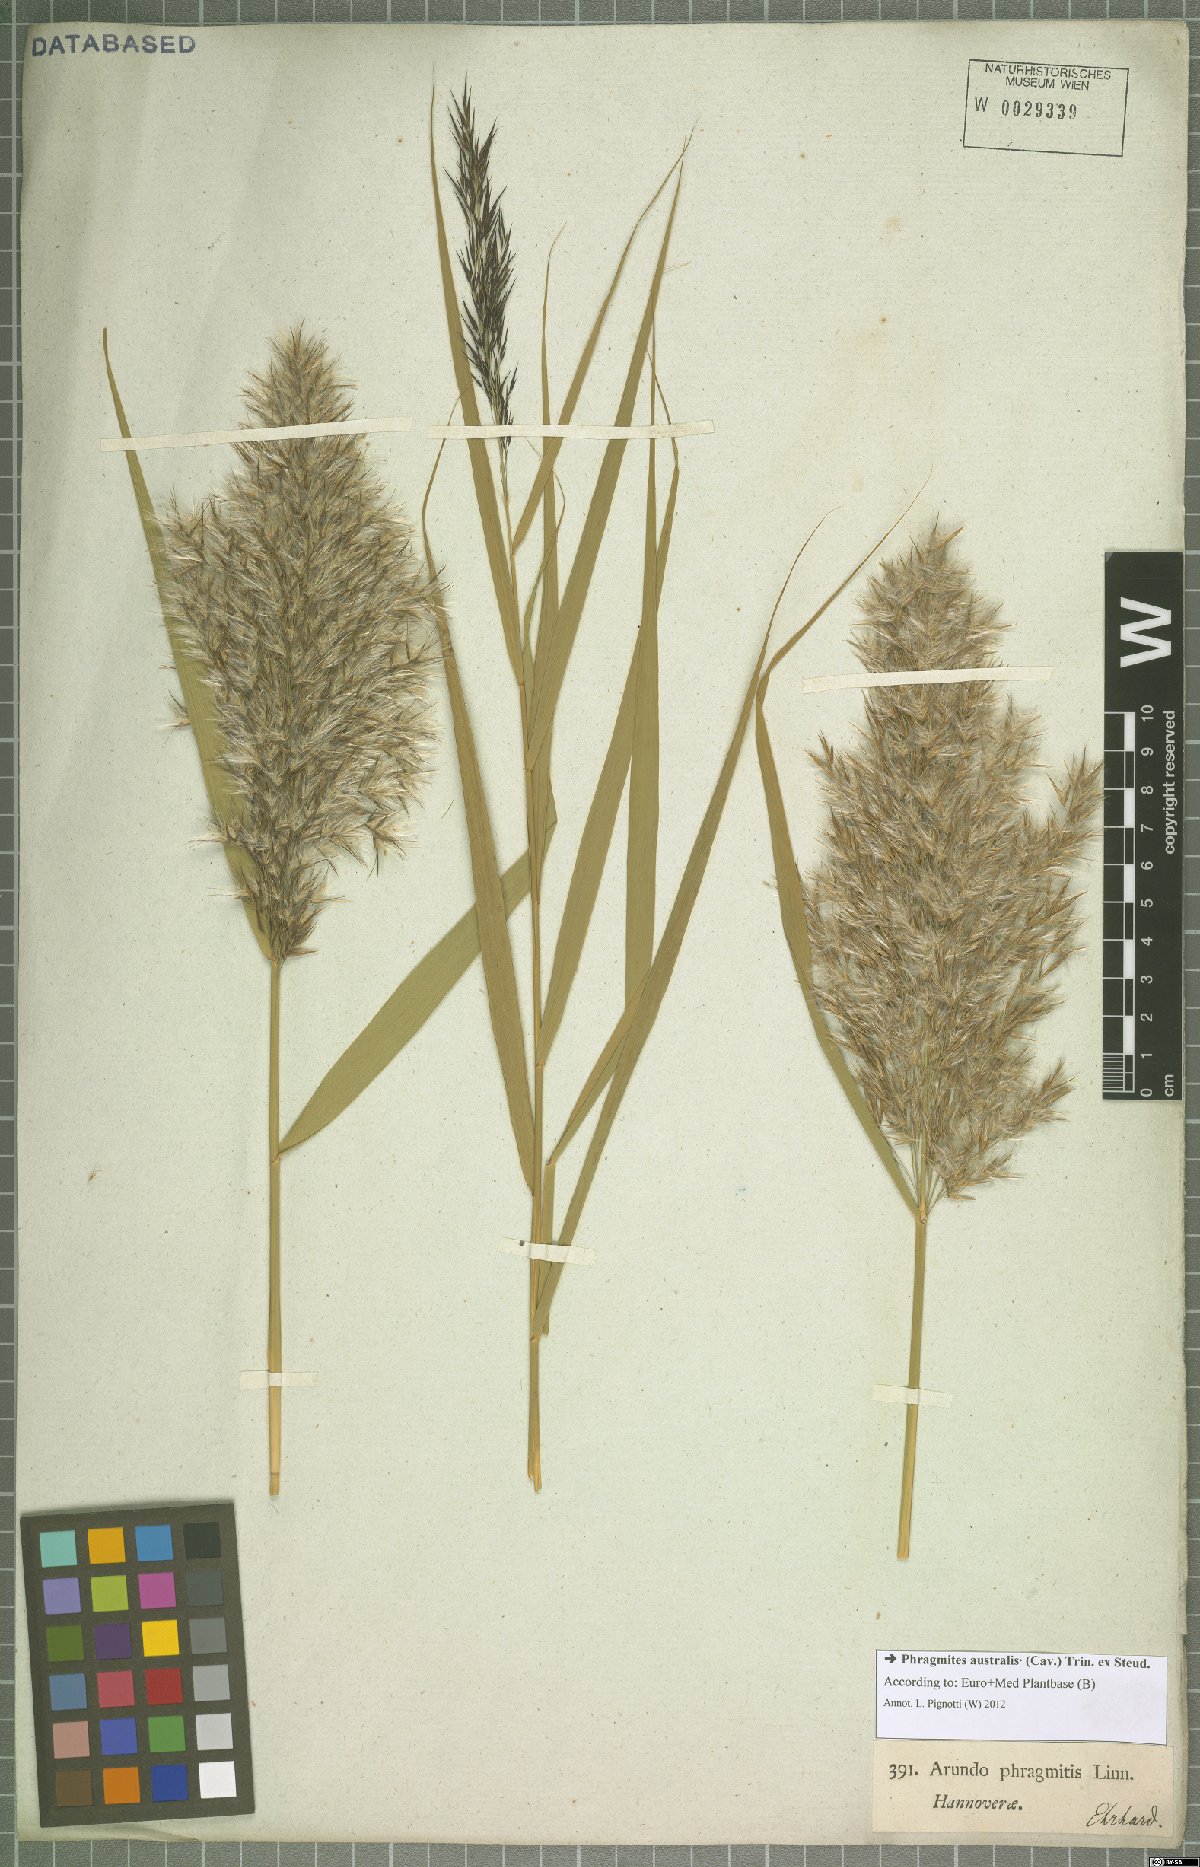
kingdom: Plantae
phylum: Tracheophyta
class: Liliopsida
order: Poales
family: Poaceae
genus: Phragmites
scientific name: Phragmites australis
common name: Common reed
